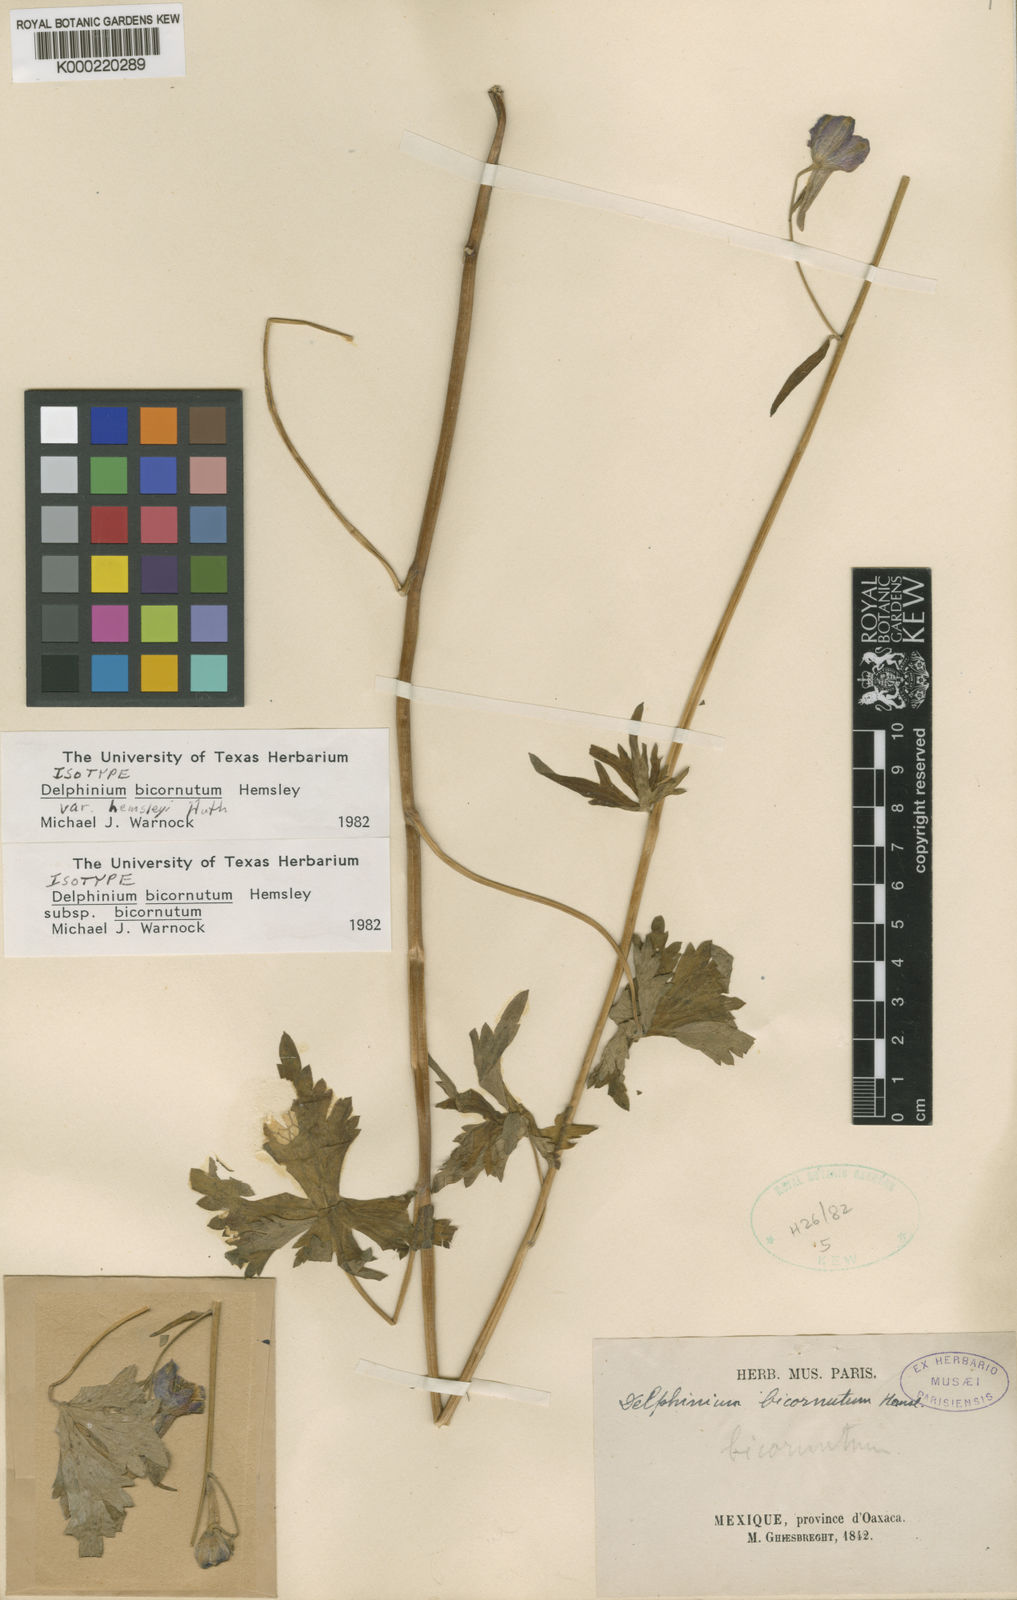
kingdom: Plantae
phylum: Tracheophyta
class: Magnoliopsida
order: Ranunculales
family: Ranunculaceae
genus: Delphinium
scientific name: Delphinium bicornutum
